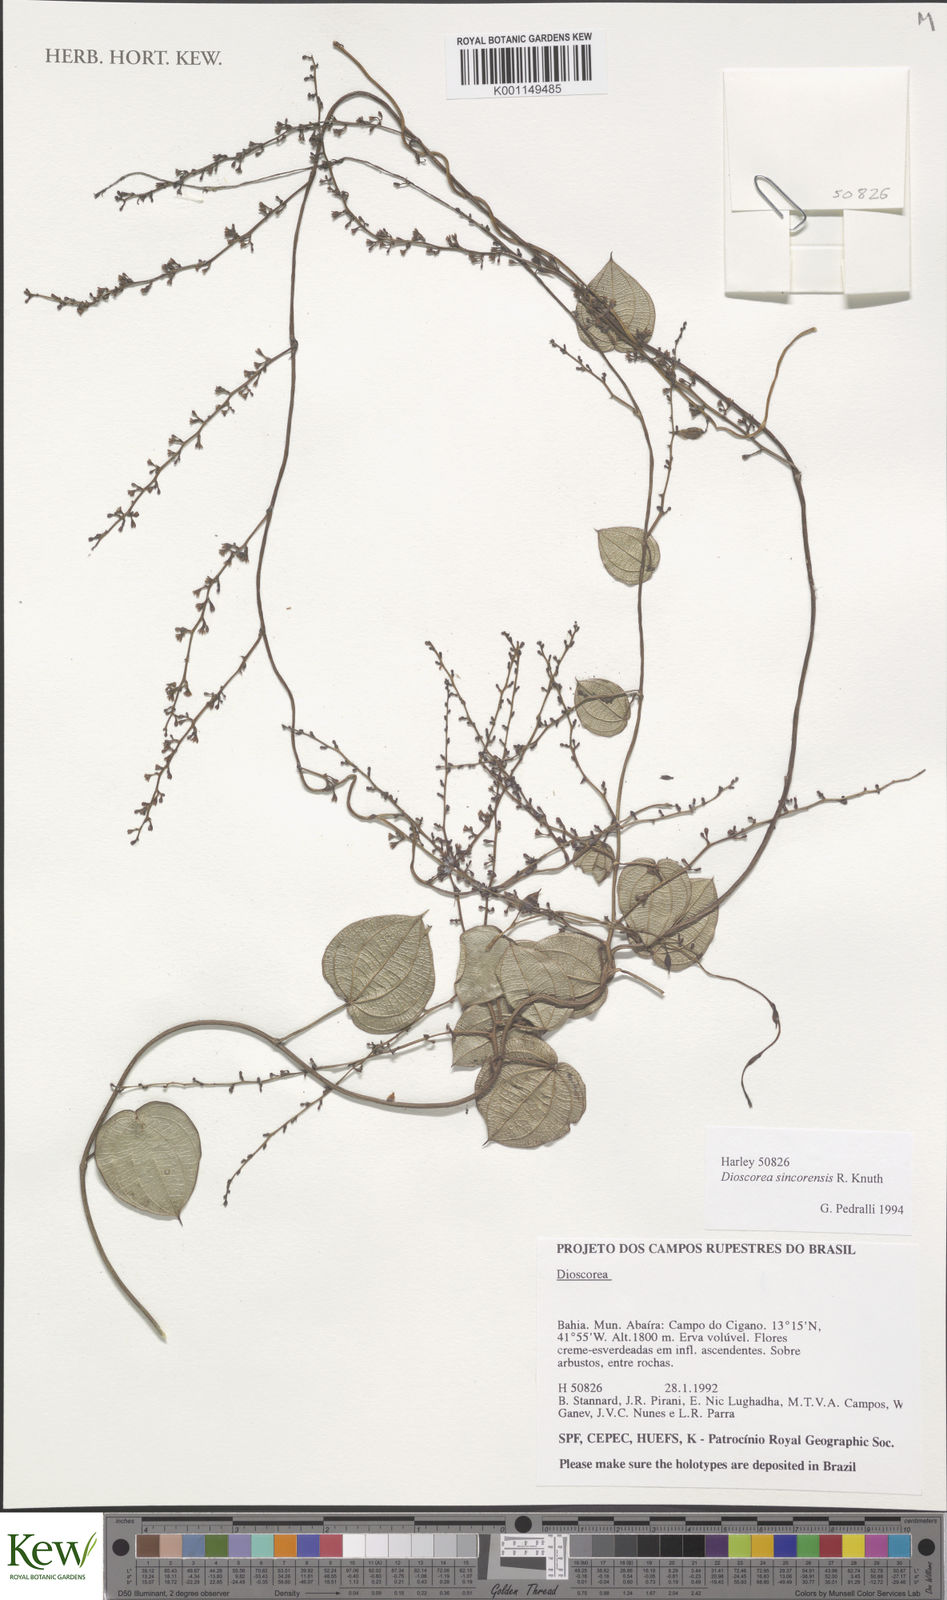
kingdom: Plantae
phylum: Tracheophyta
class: Liliopsida
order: Dioscoreales
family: Dioscoreaceae
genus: Dioscorea
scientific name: Dioscorea sincorensis
